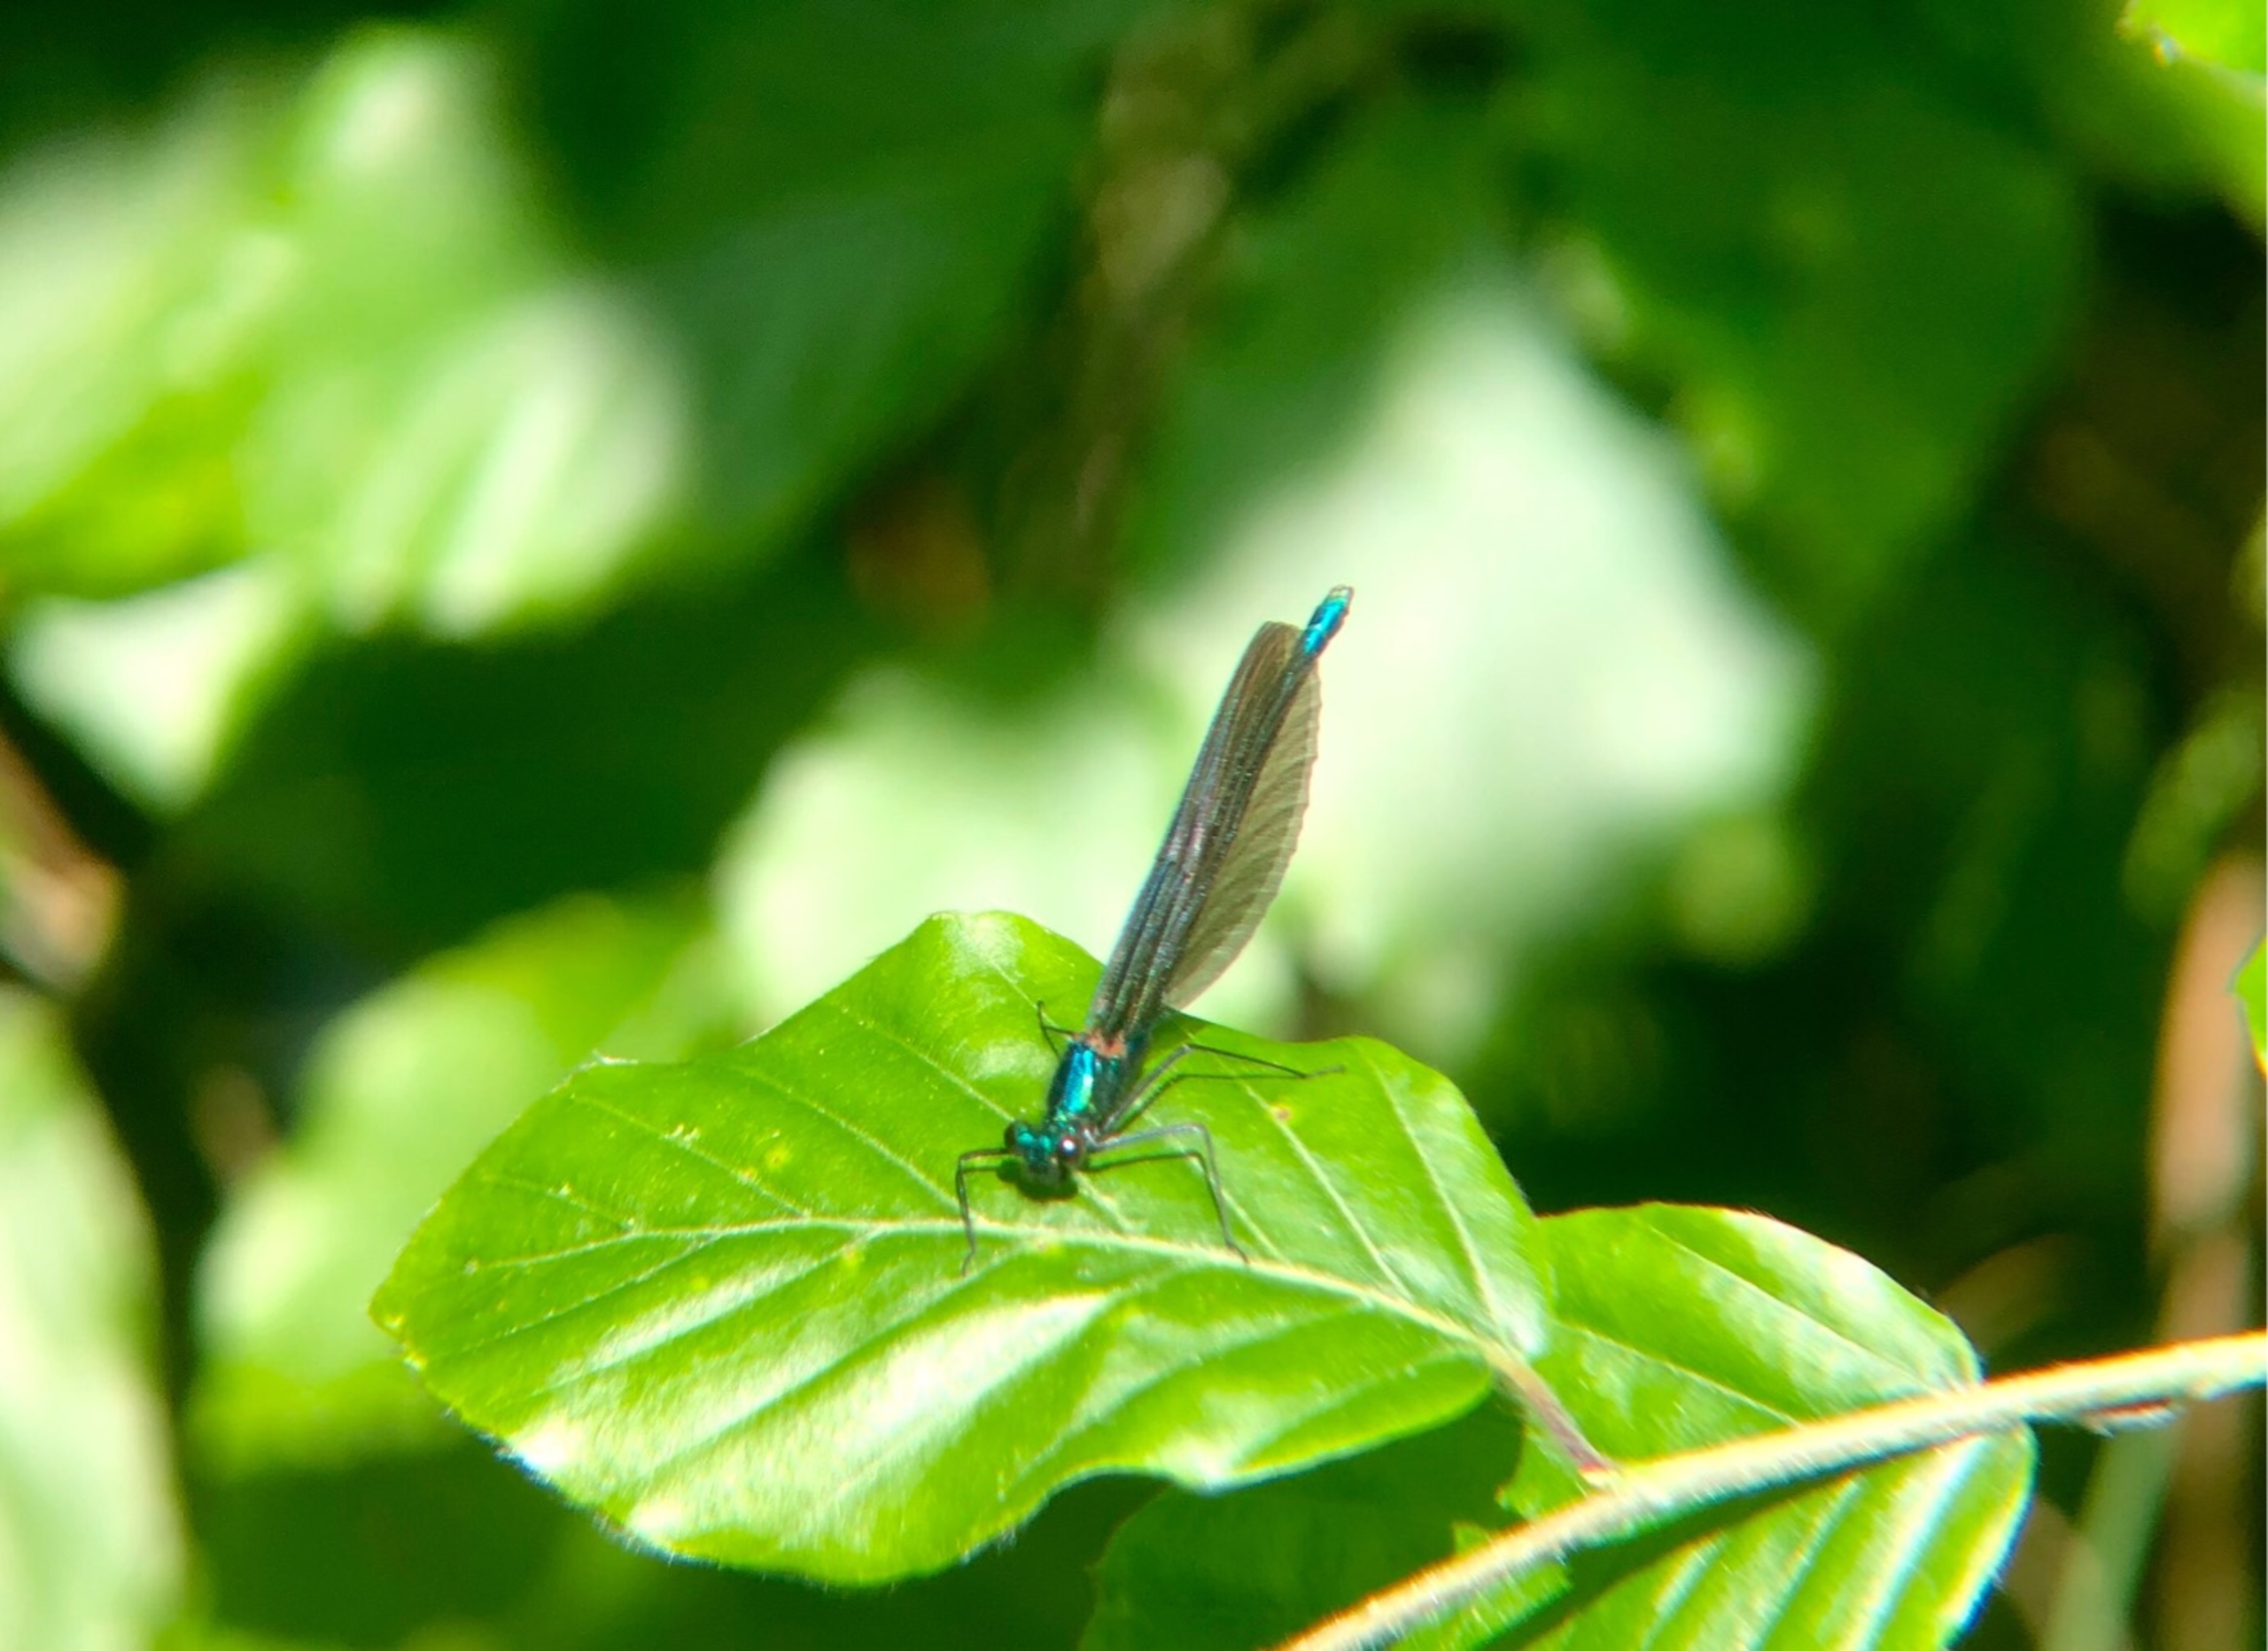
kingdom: Animalia
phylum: Arthropoda
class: Insecta
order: Odonata
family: Calopterygidae
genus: Calopteryx
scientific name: Calopteryx virgo
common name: Blåvinget pragtvandnymfe
